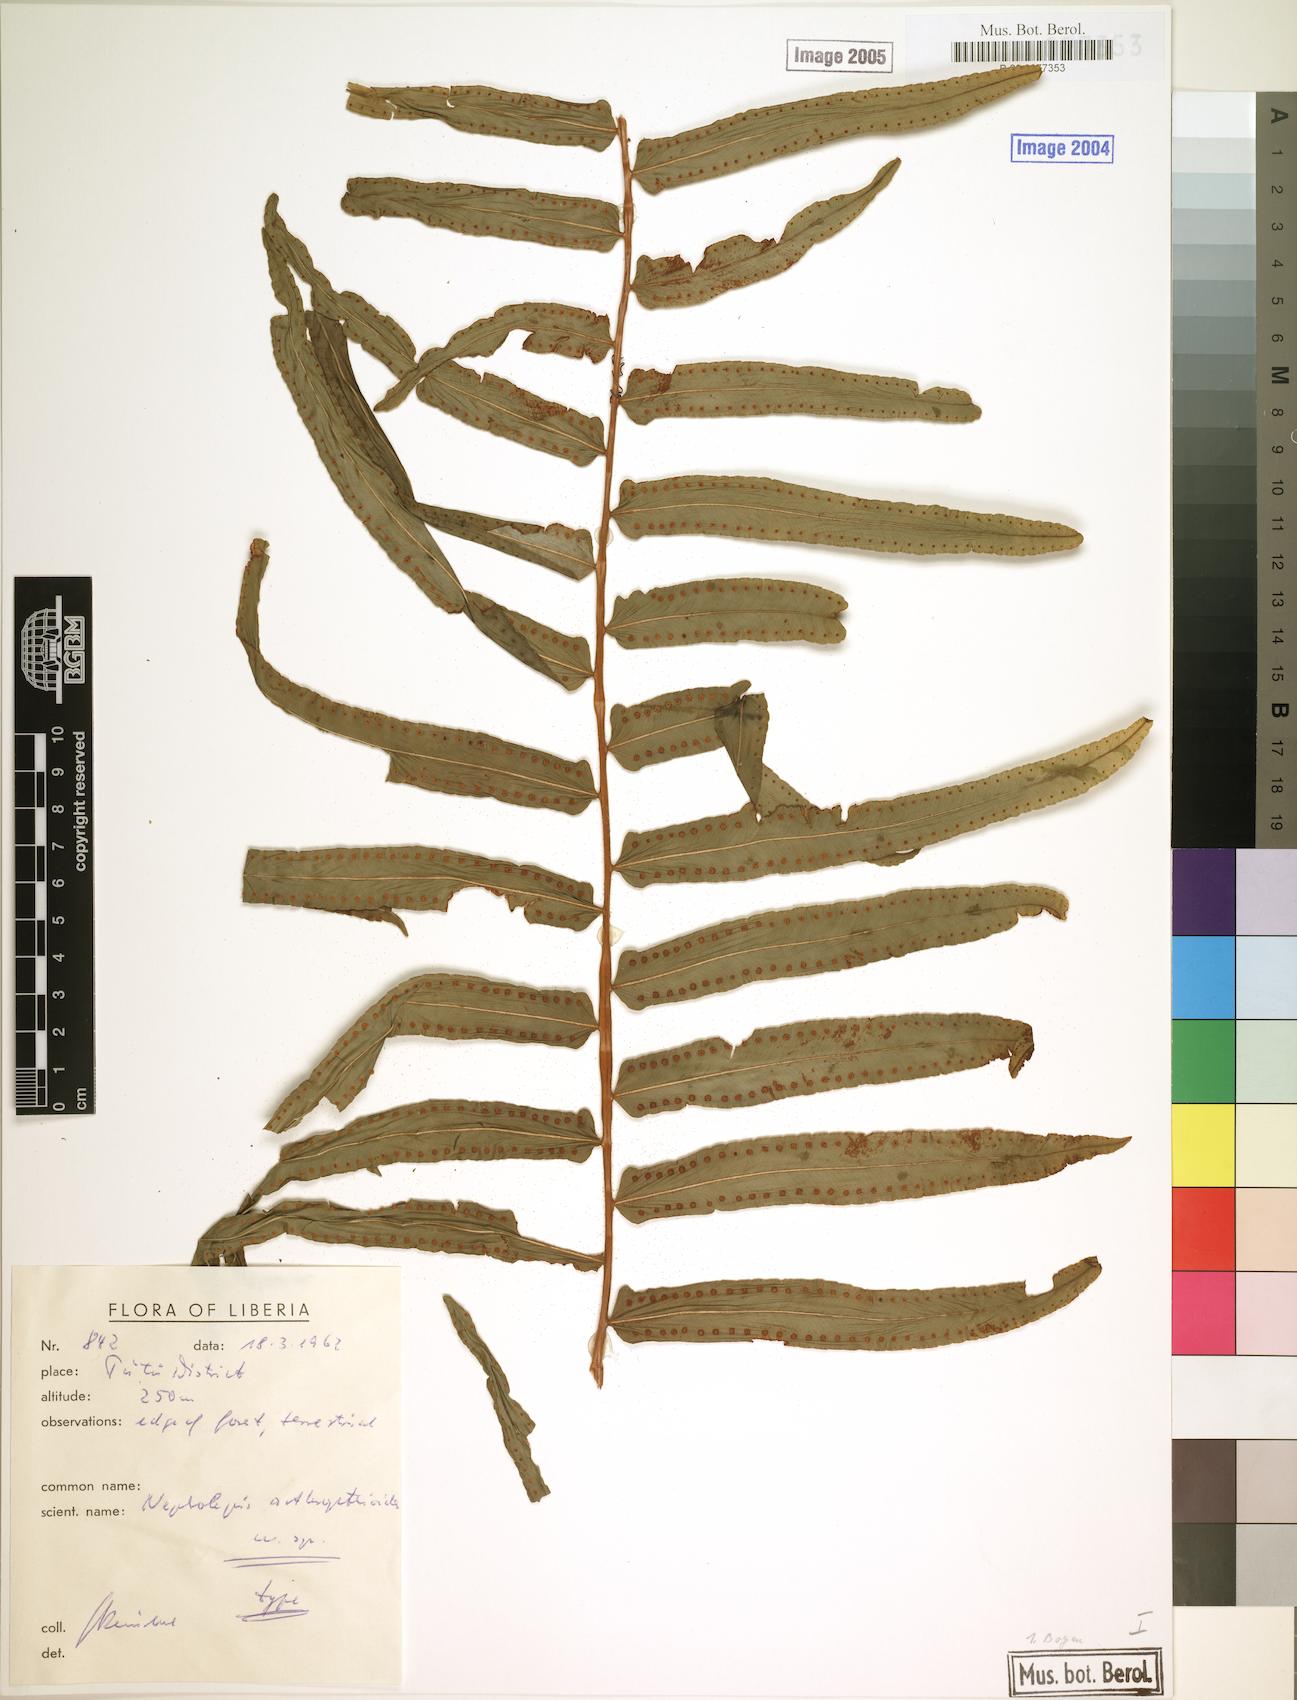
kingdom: Plantae
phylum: Tracheophyta
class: Polypodiopsida
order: Polypodiales
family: Nephrolepidaceae
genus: Nephrolepis
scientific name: Nephrolepis biserrata
